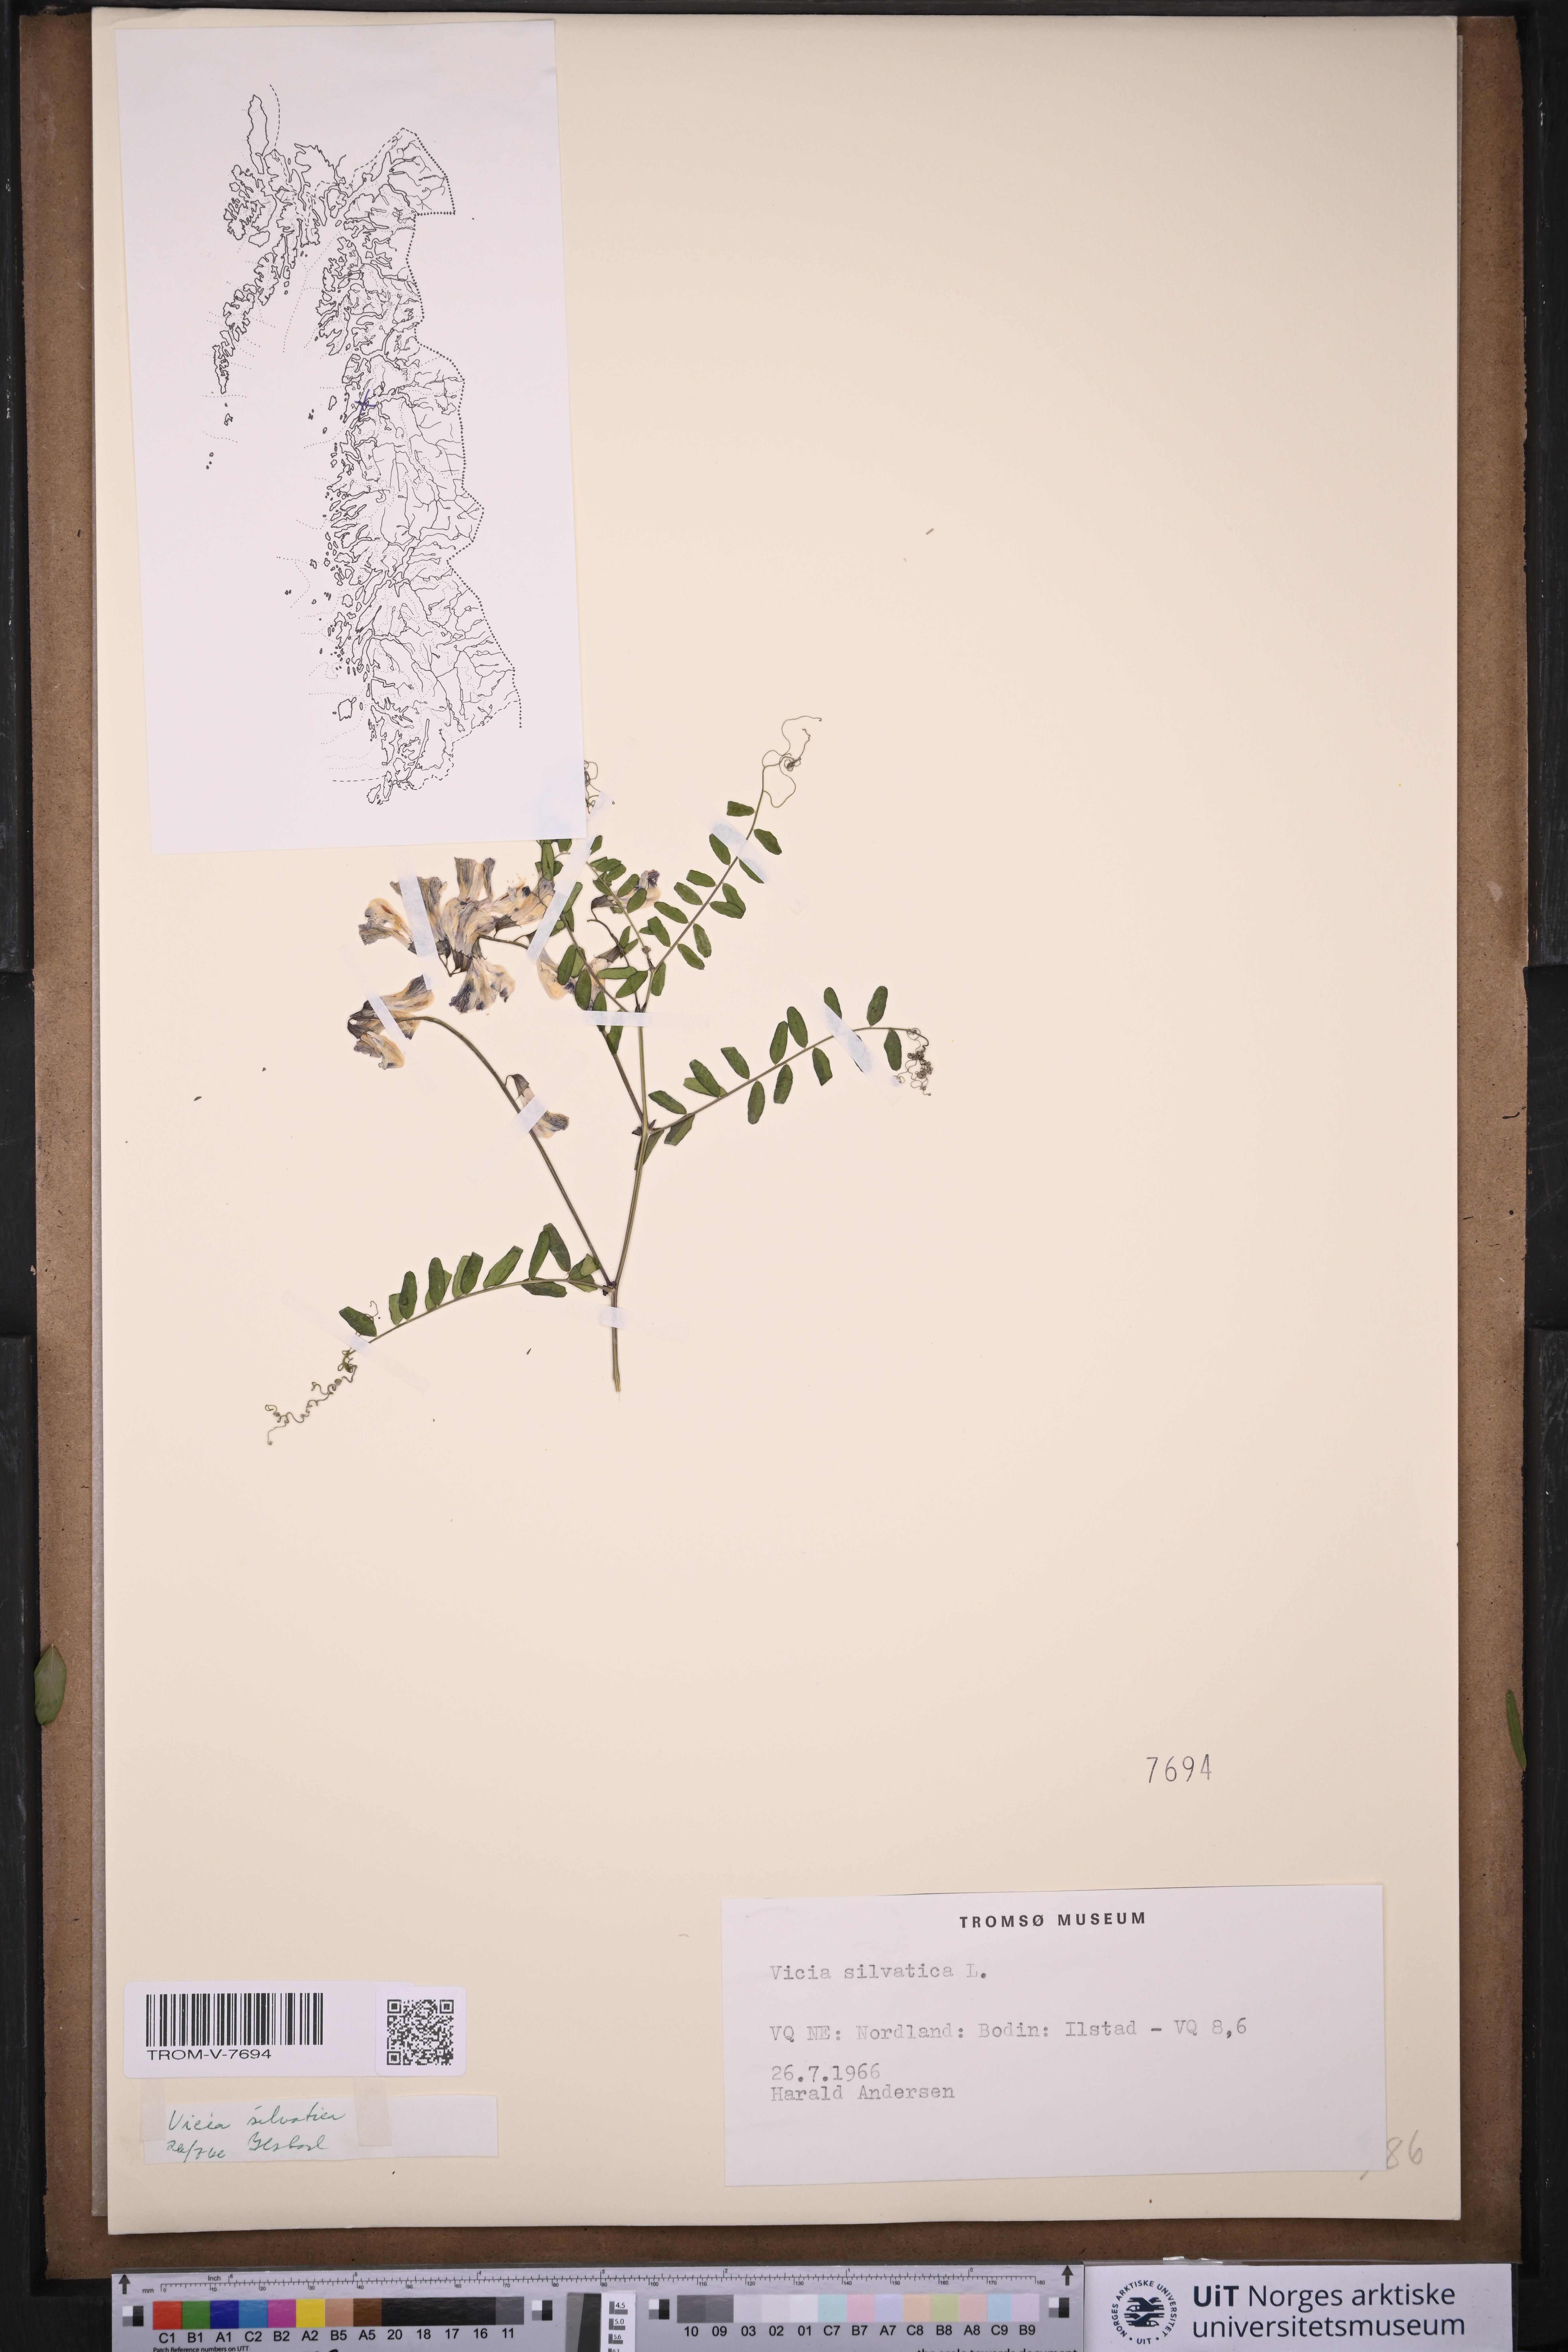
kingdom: Plantae
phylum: Tracheophyta
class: Magnoliopsida
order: Fabales
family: Fabaceae
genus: Vicia
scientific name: Vicia sylvatica
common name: Wood vetch
